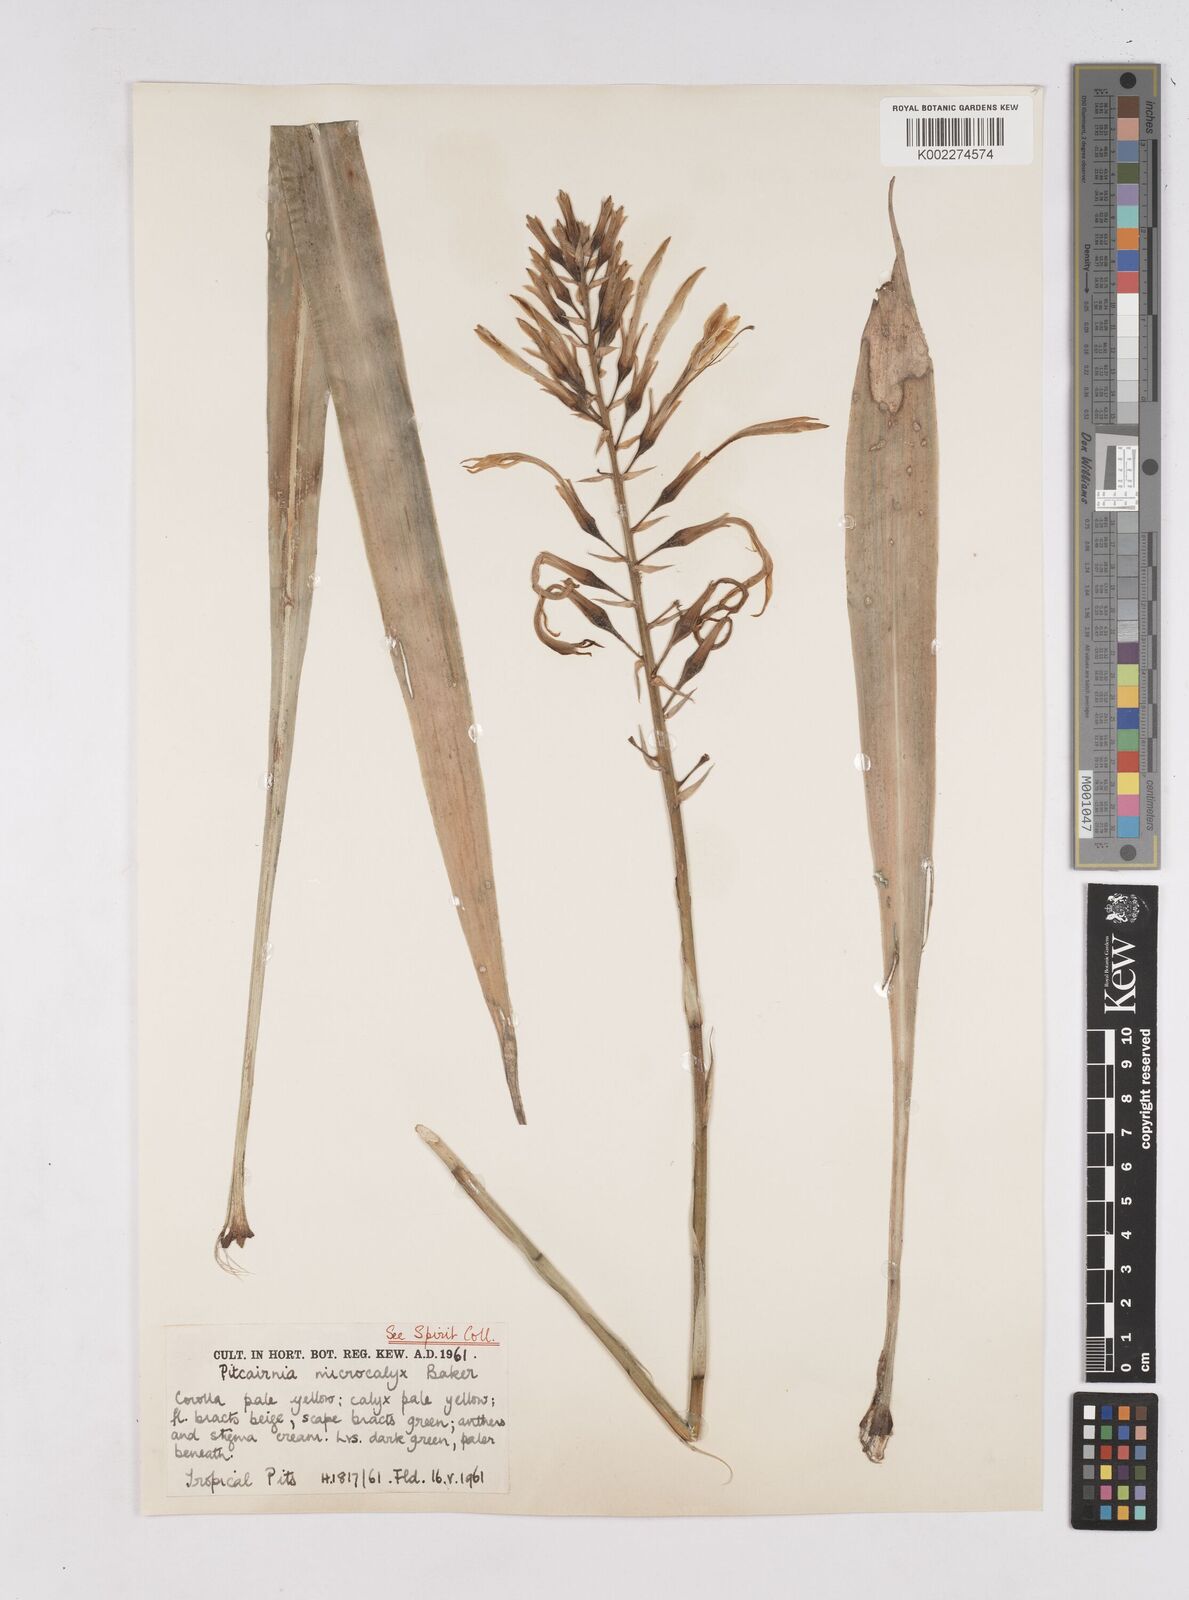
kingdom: Plantae
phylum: Tracheophyta
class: Liliopsida
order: Poales
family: Bromeliaceae
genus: Pitcairnia
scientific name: Pitcairnia xanthocalyx
